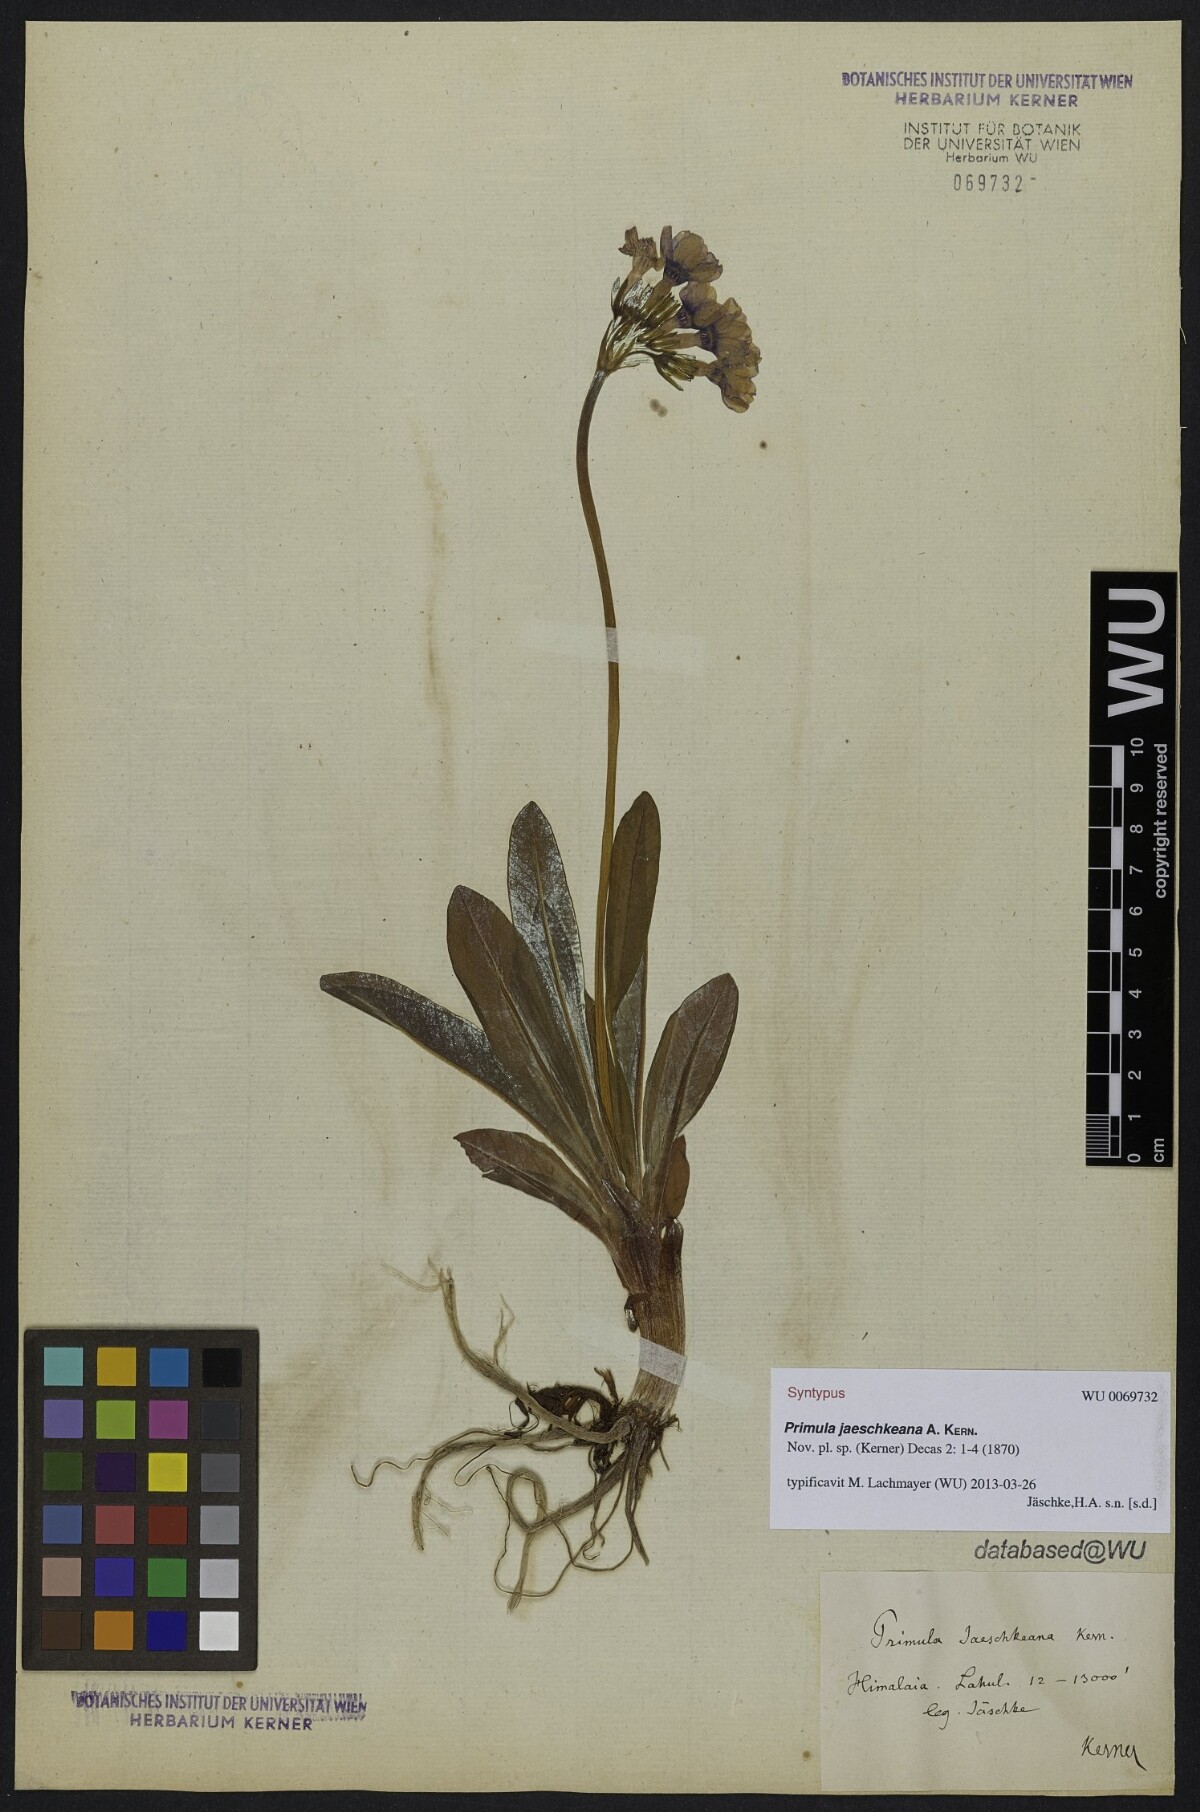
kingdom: Plantae
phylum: Tracheophyta
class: Magnoliopsida
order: Ericales
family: Primulaceae
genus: Primula
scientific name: Primula macrophylla
